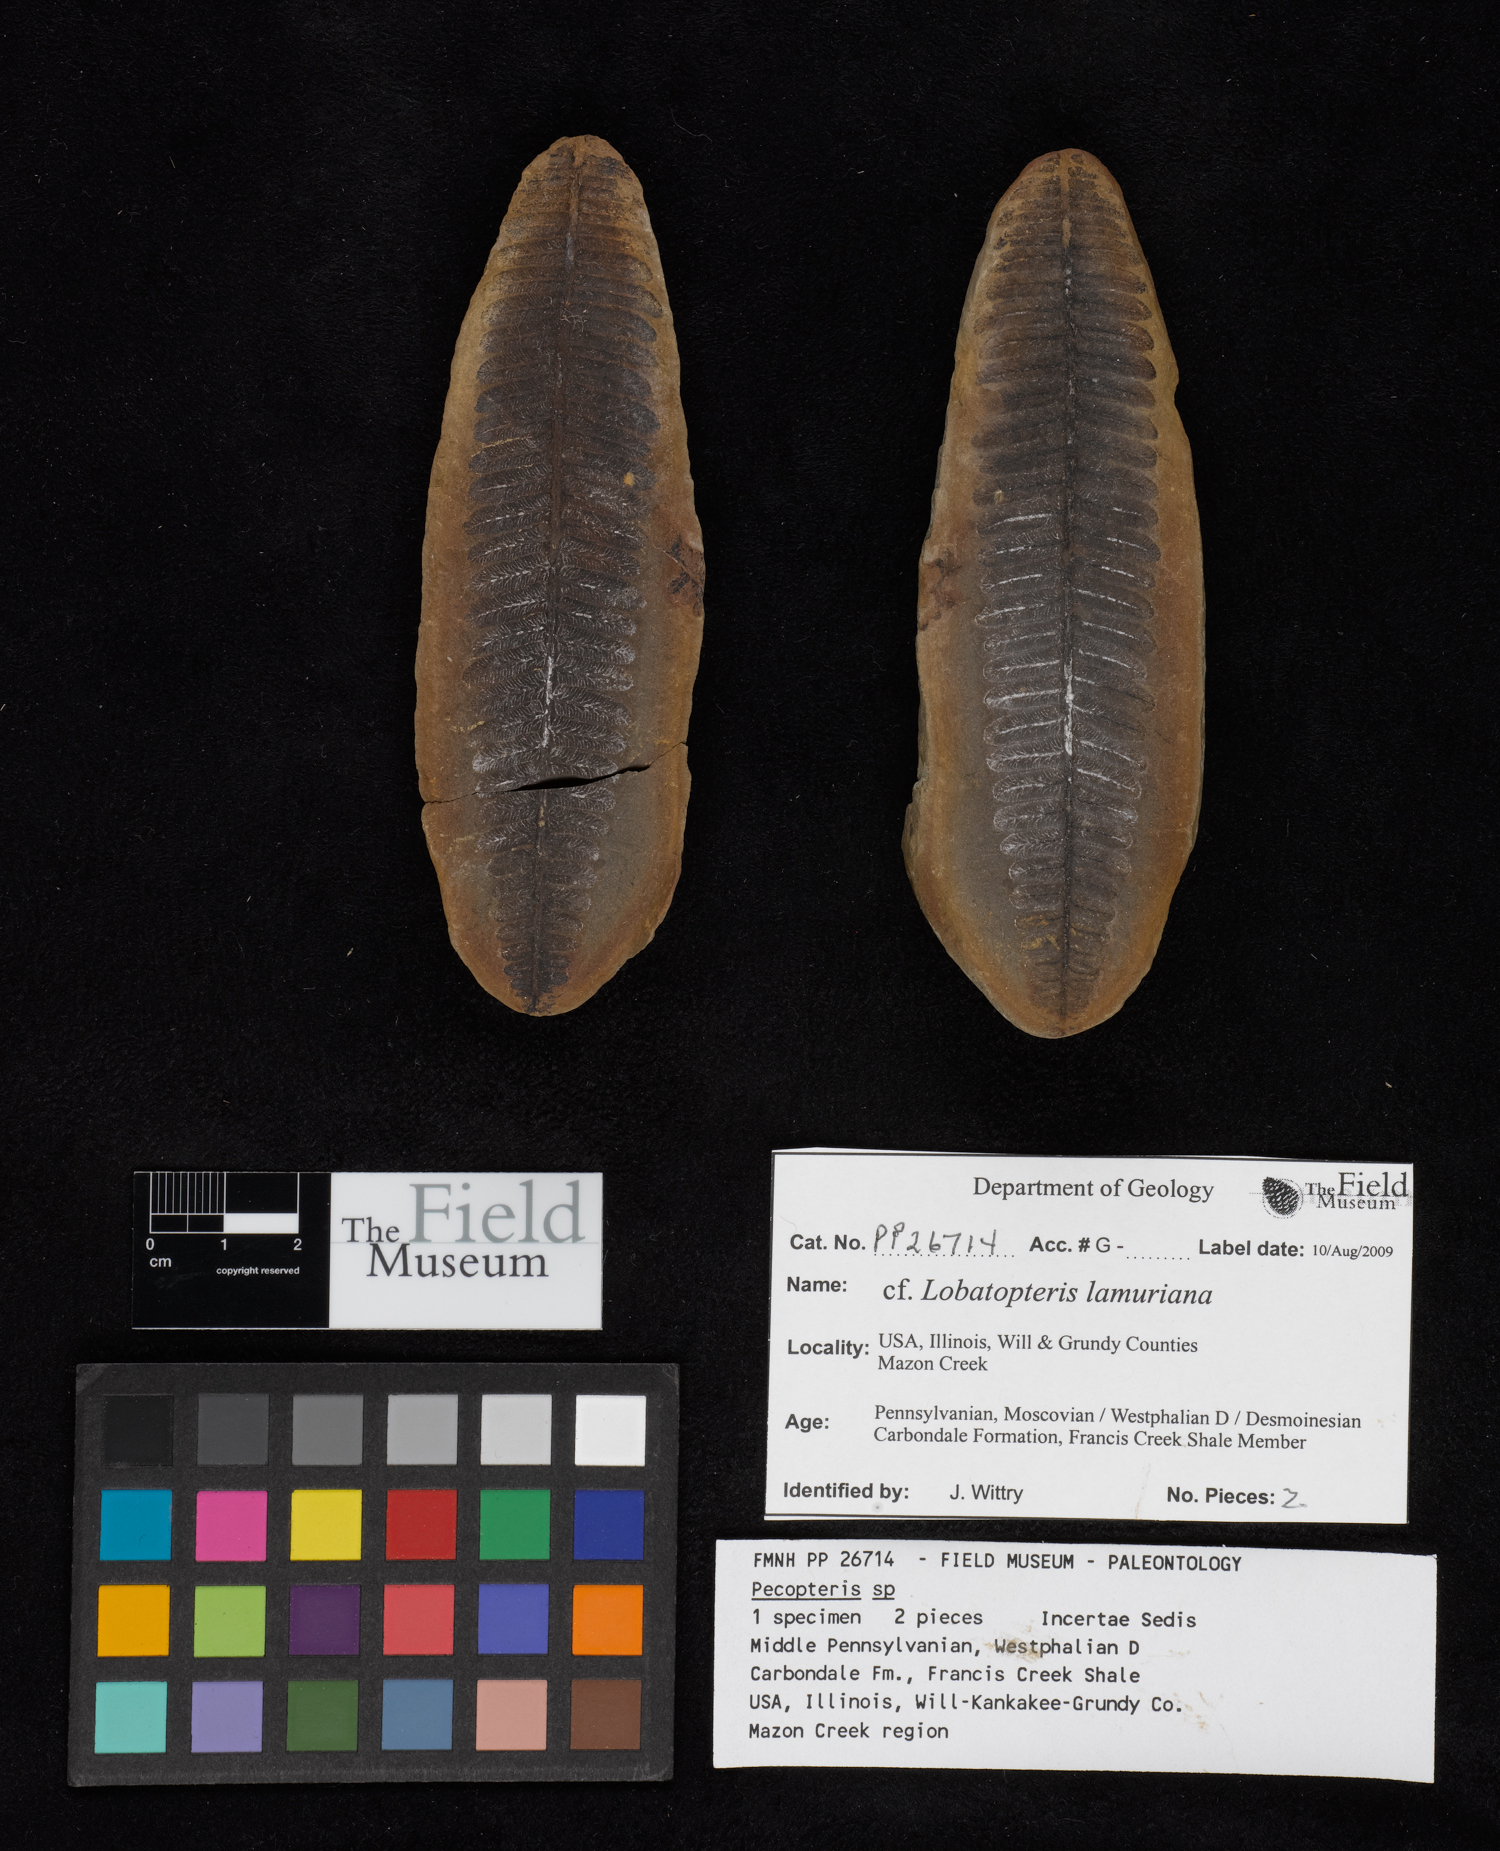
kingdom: Plantae
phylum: Tracheophyta
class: Polypodiopsida
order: Marattiales
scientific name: Marattiales
